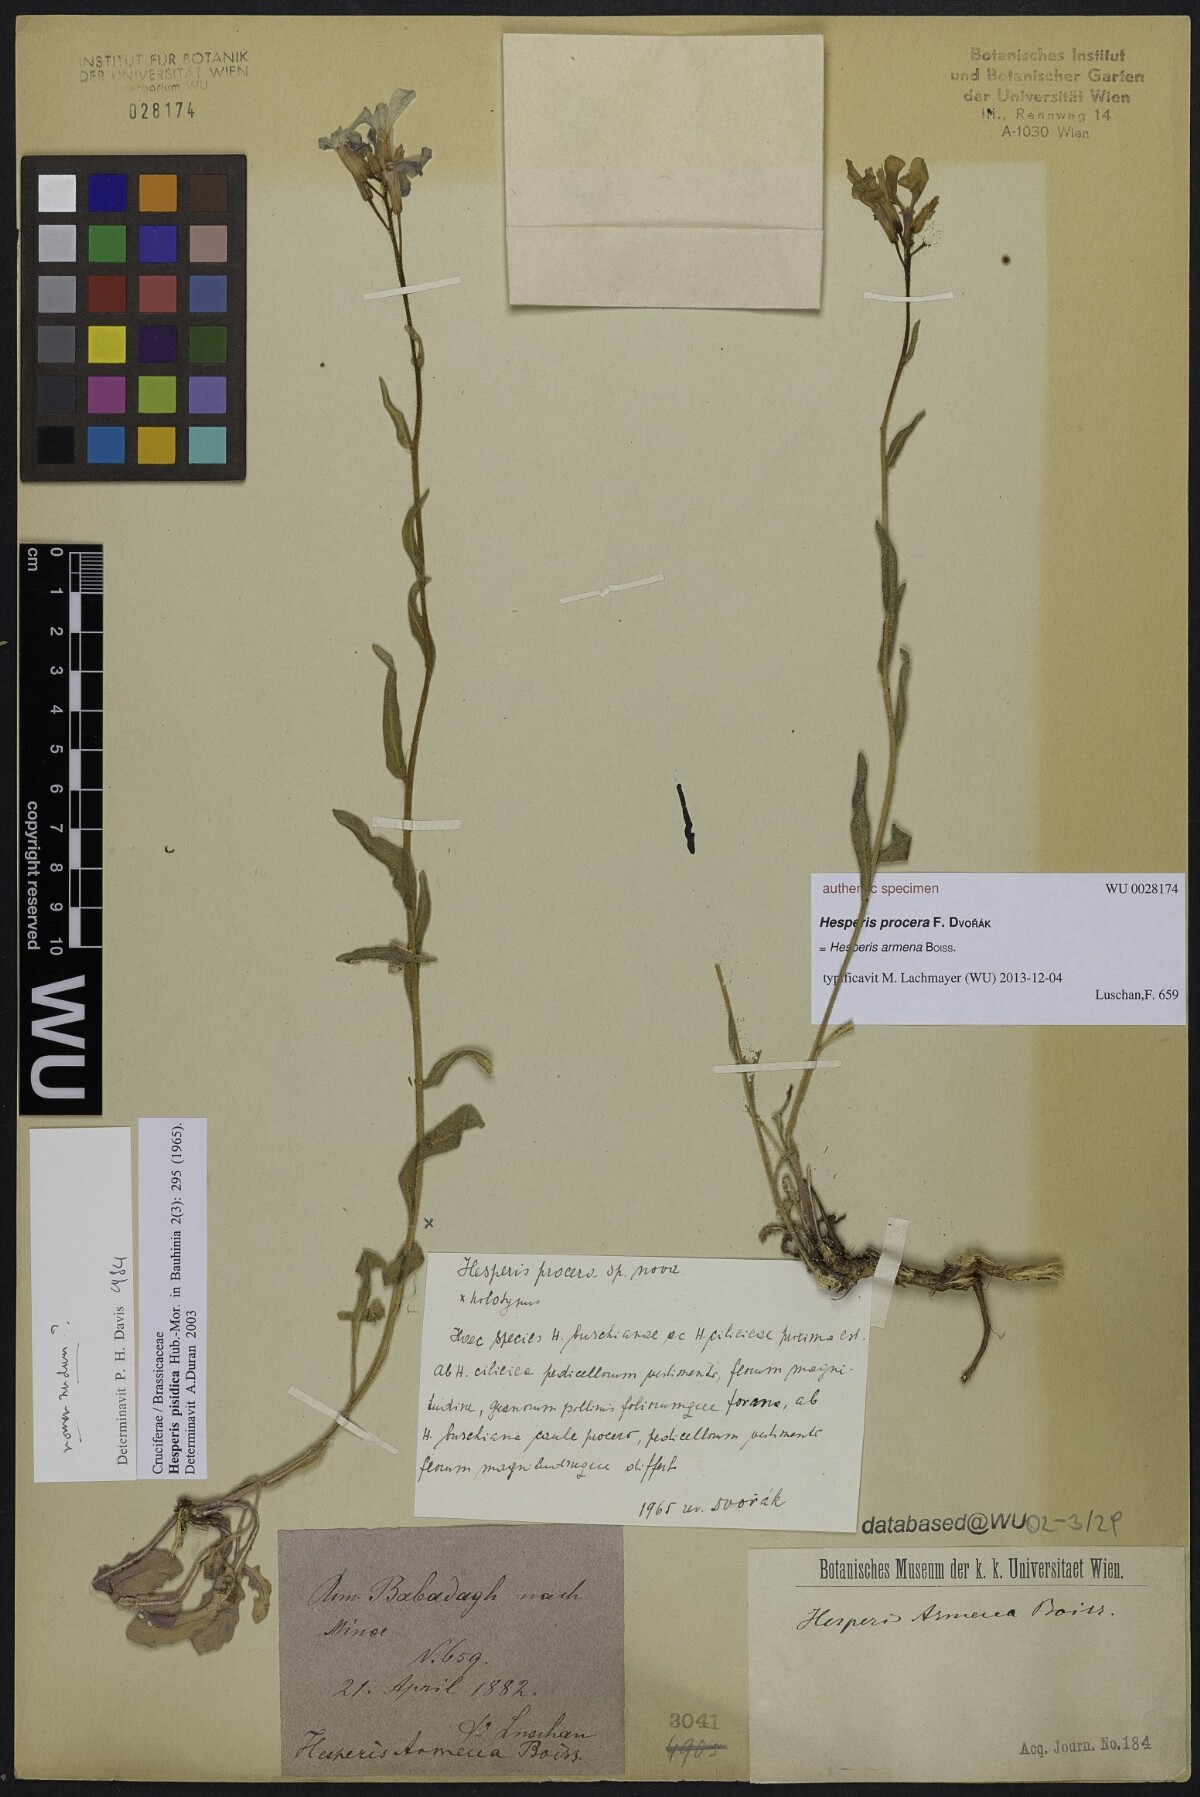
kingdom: Plantae
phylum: Tracheophyta
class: Magnoliopsida
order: Brassicales
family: Brassicaceae
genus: Hesperis
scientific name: Hesperis
